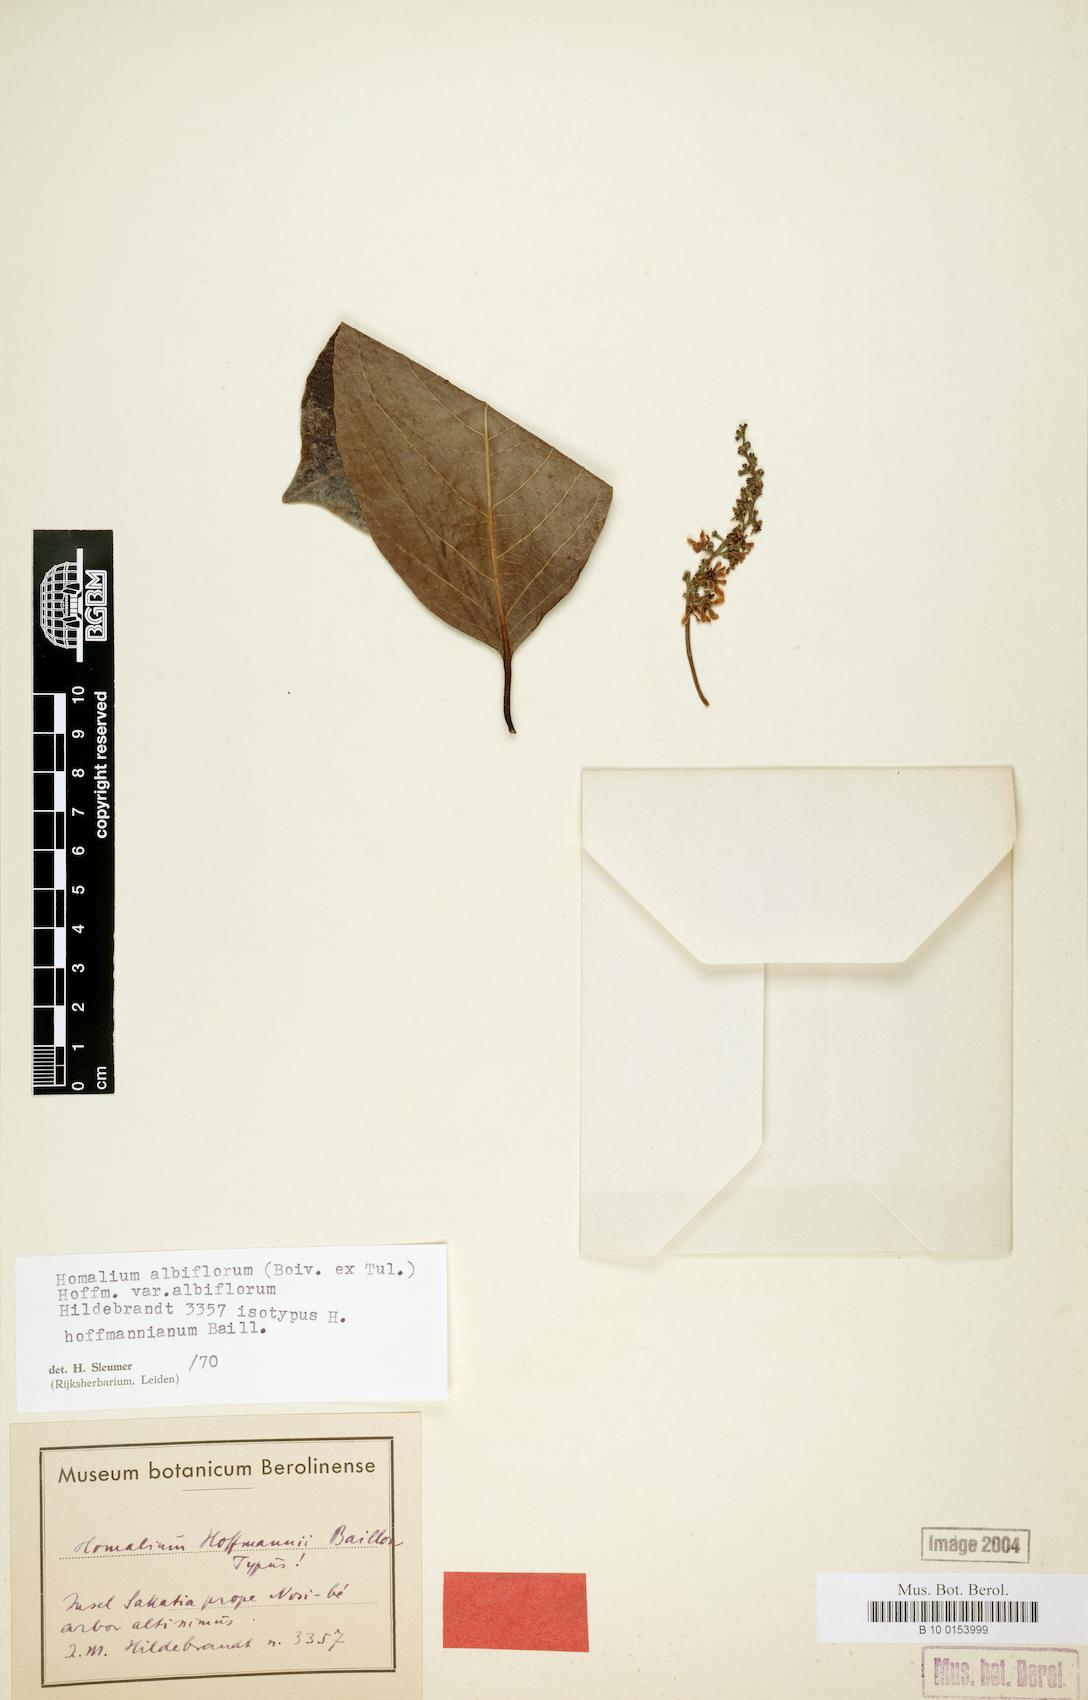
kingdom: Plantae
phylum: Tracheophyta
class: Magnoliopsida
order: Malpighiales
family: Salicaceae
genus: Homalium
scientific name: Homalium albiflorum
